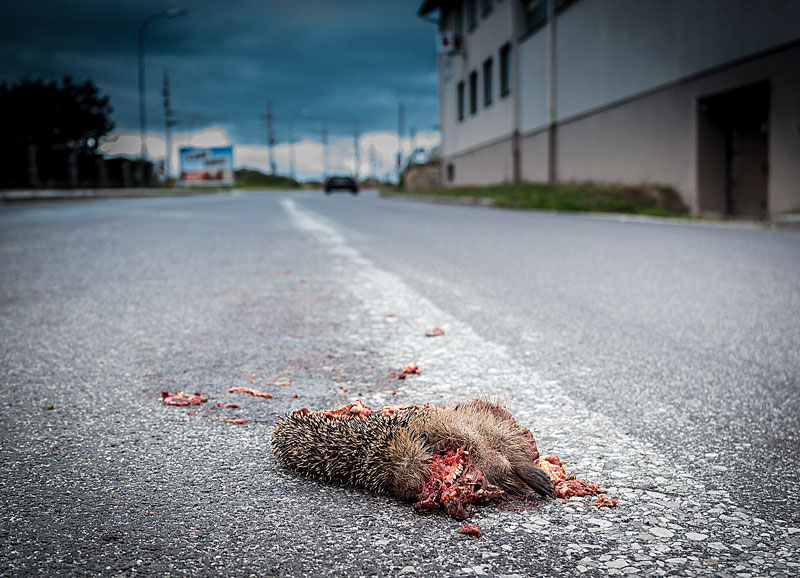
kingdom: Animalia
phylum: Chordata
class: Mammalia
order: Erinaceomorpha
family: Erinaceidae
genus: Erinaceus
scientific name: Erinaceus
